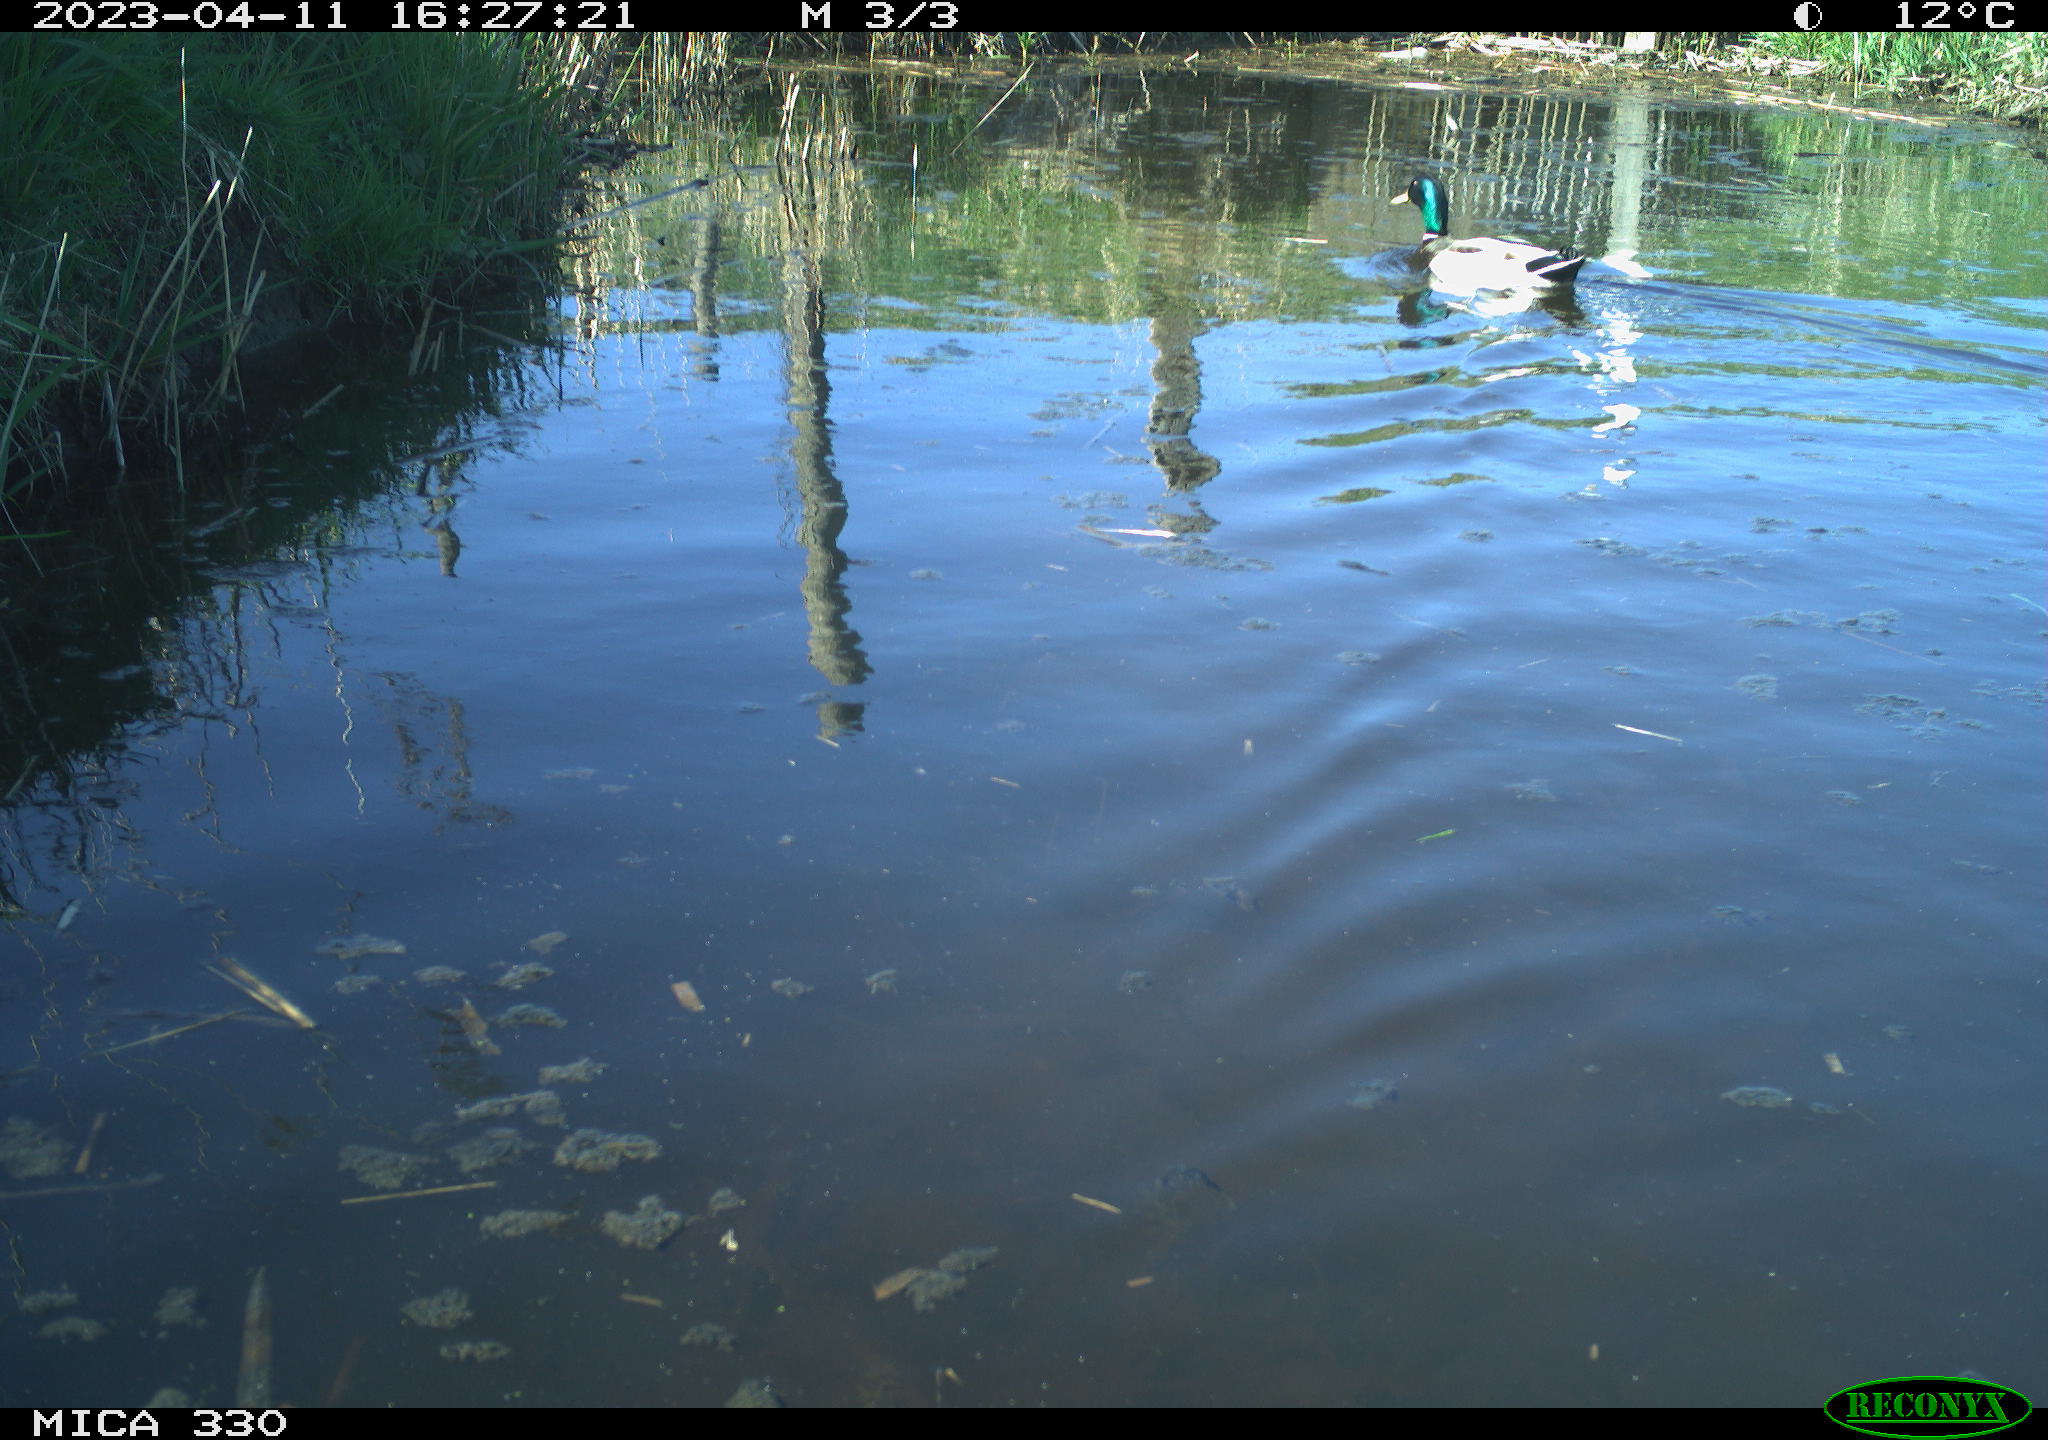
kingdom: Animalia
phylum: Chordata
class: Aves
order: Anseriformes
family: Anatidae
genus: Anas
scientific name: Anas
